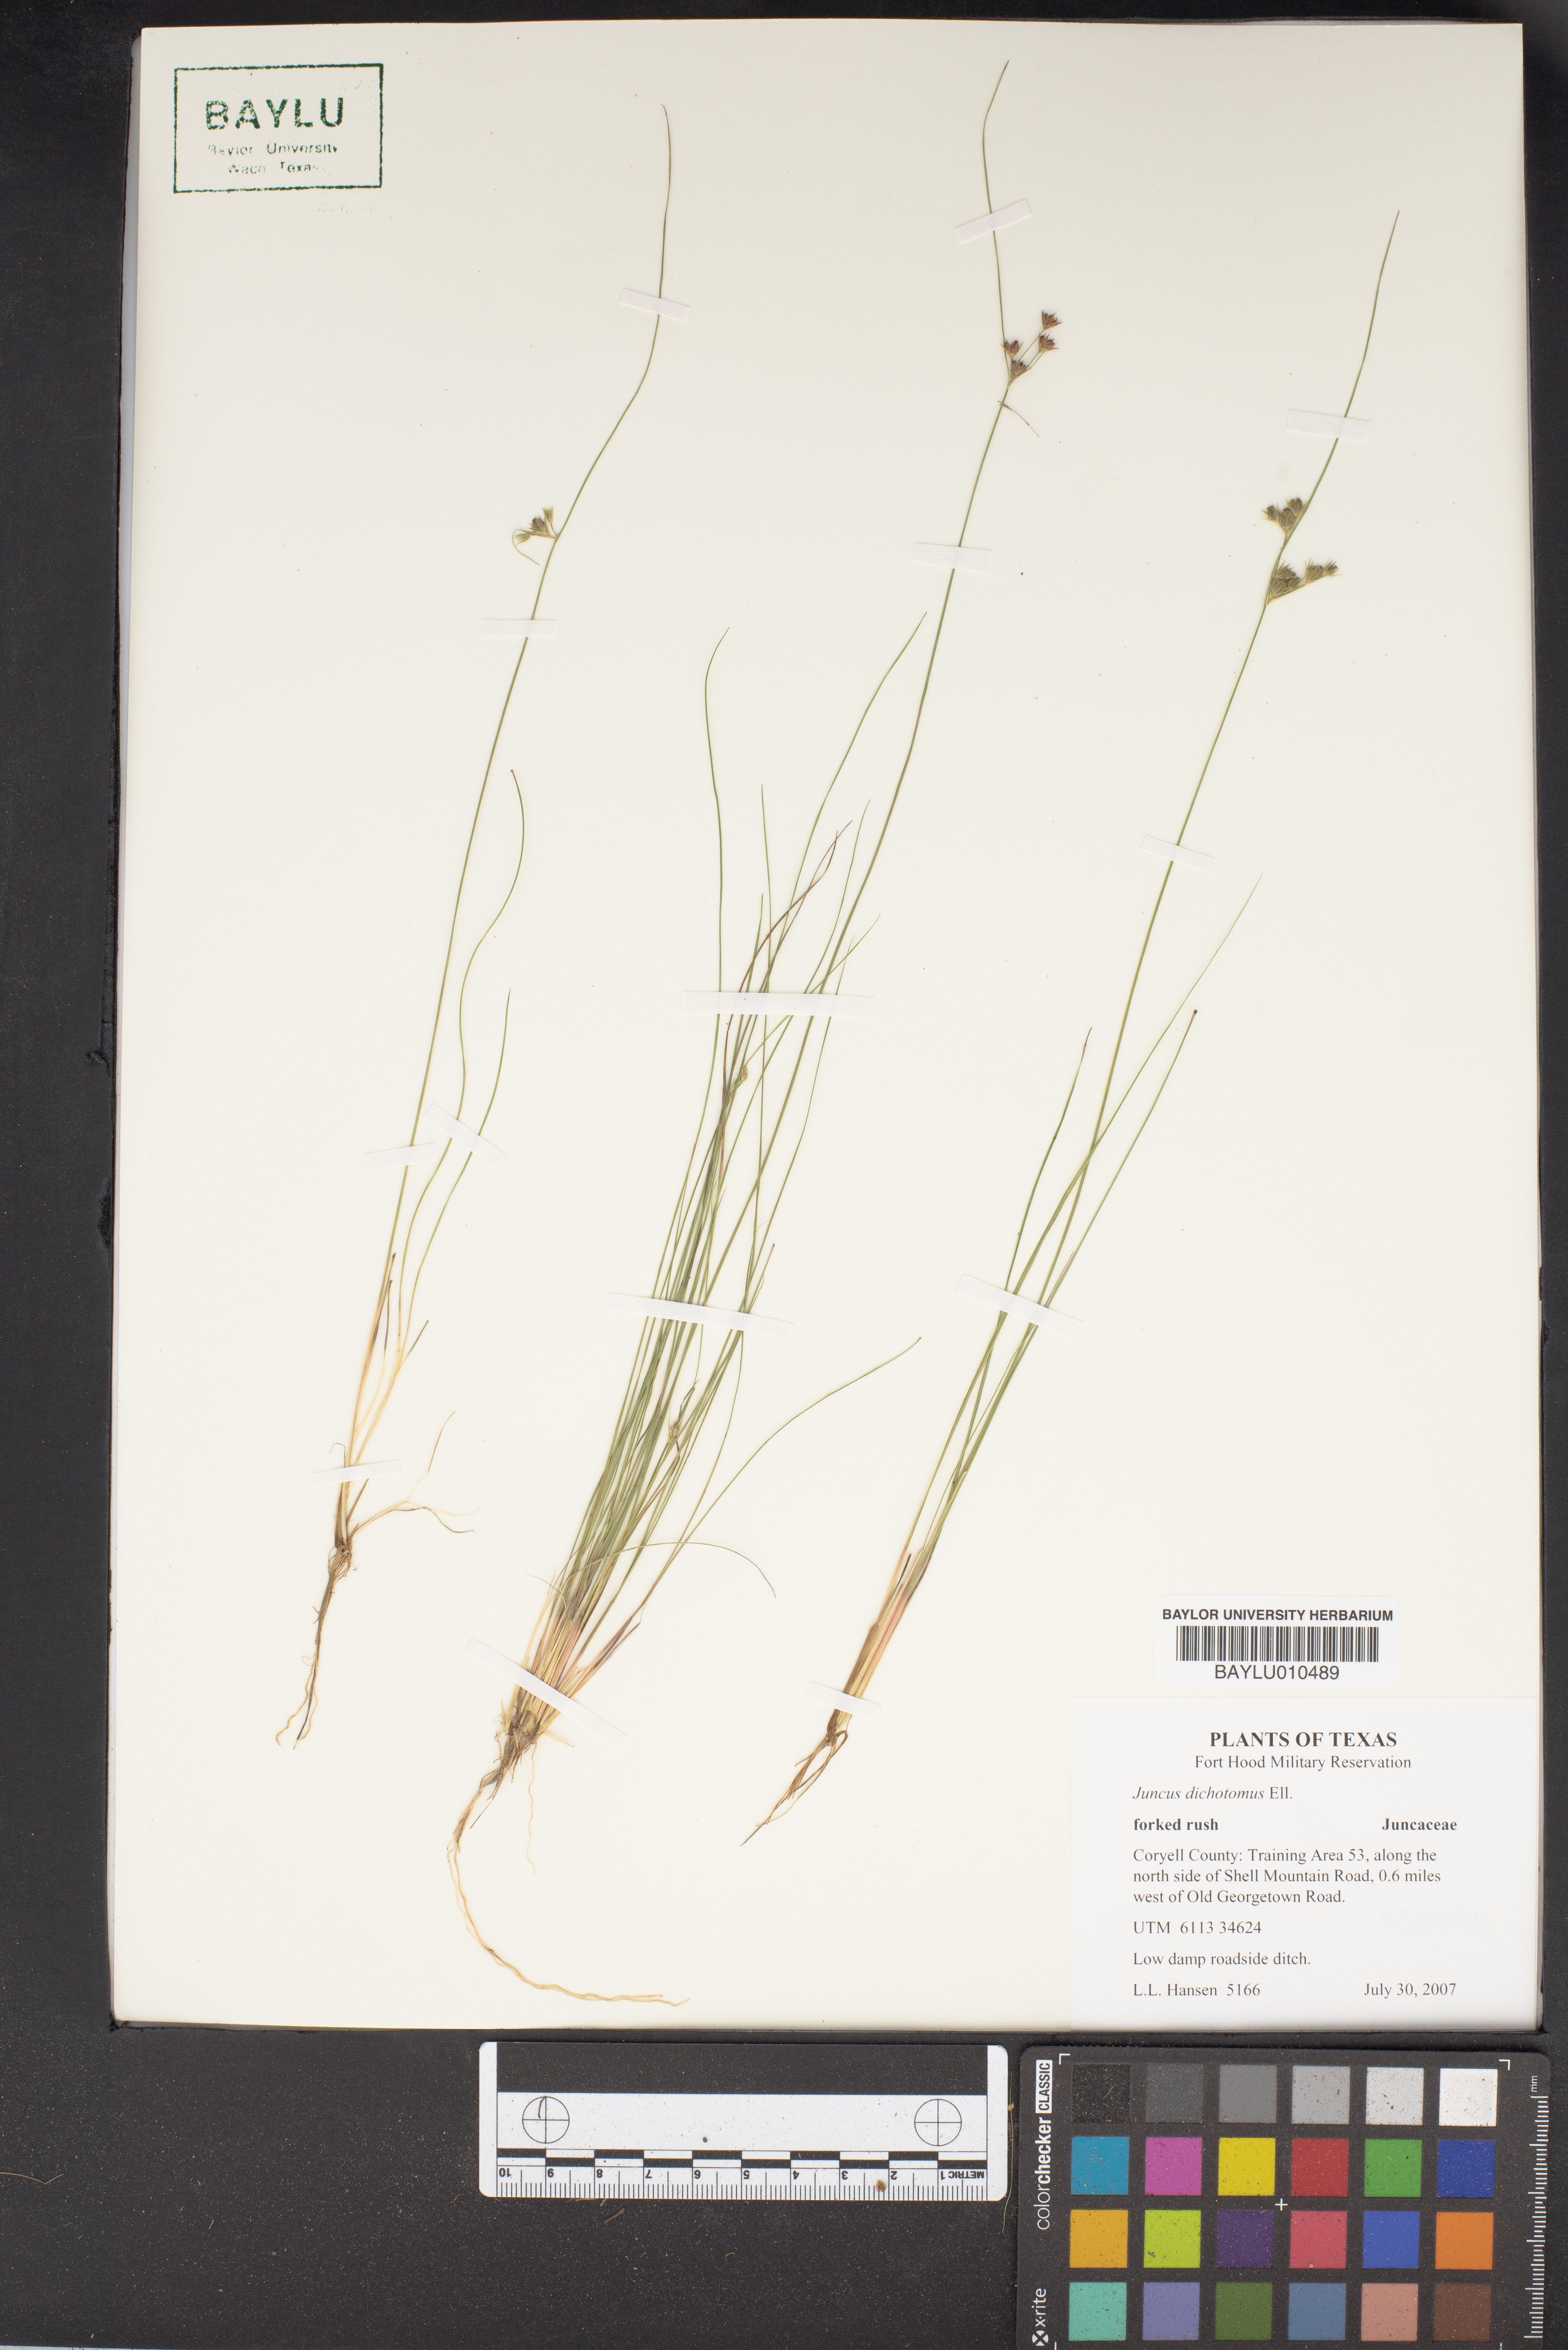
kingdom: Plantae
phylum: Tracheophyta
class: Liliopsida
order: Poales
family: Juncaceae
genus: Juncus
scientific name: Juncus dichotomus
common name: Forked rush
